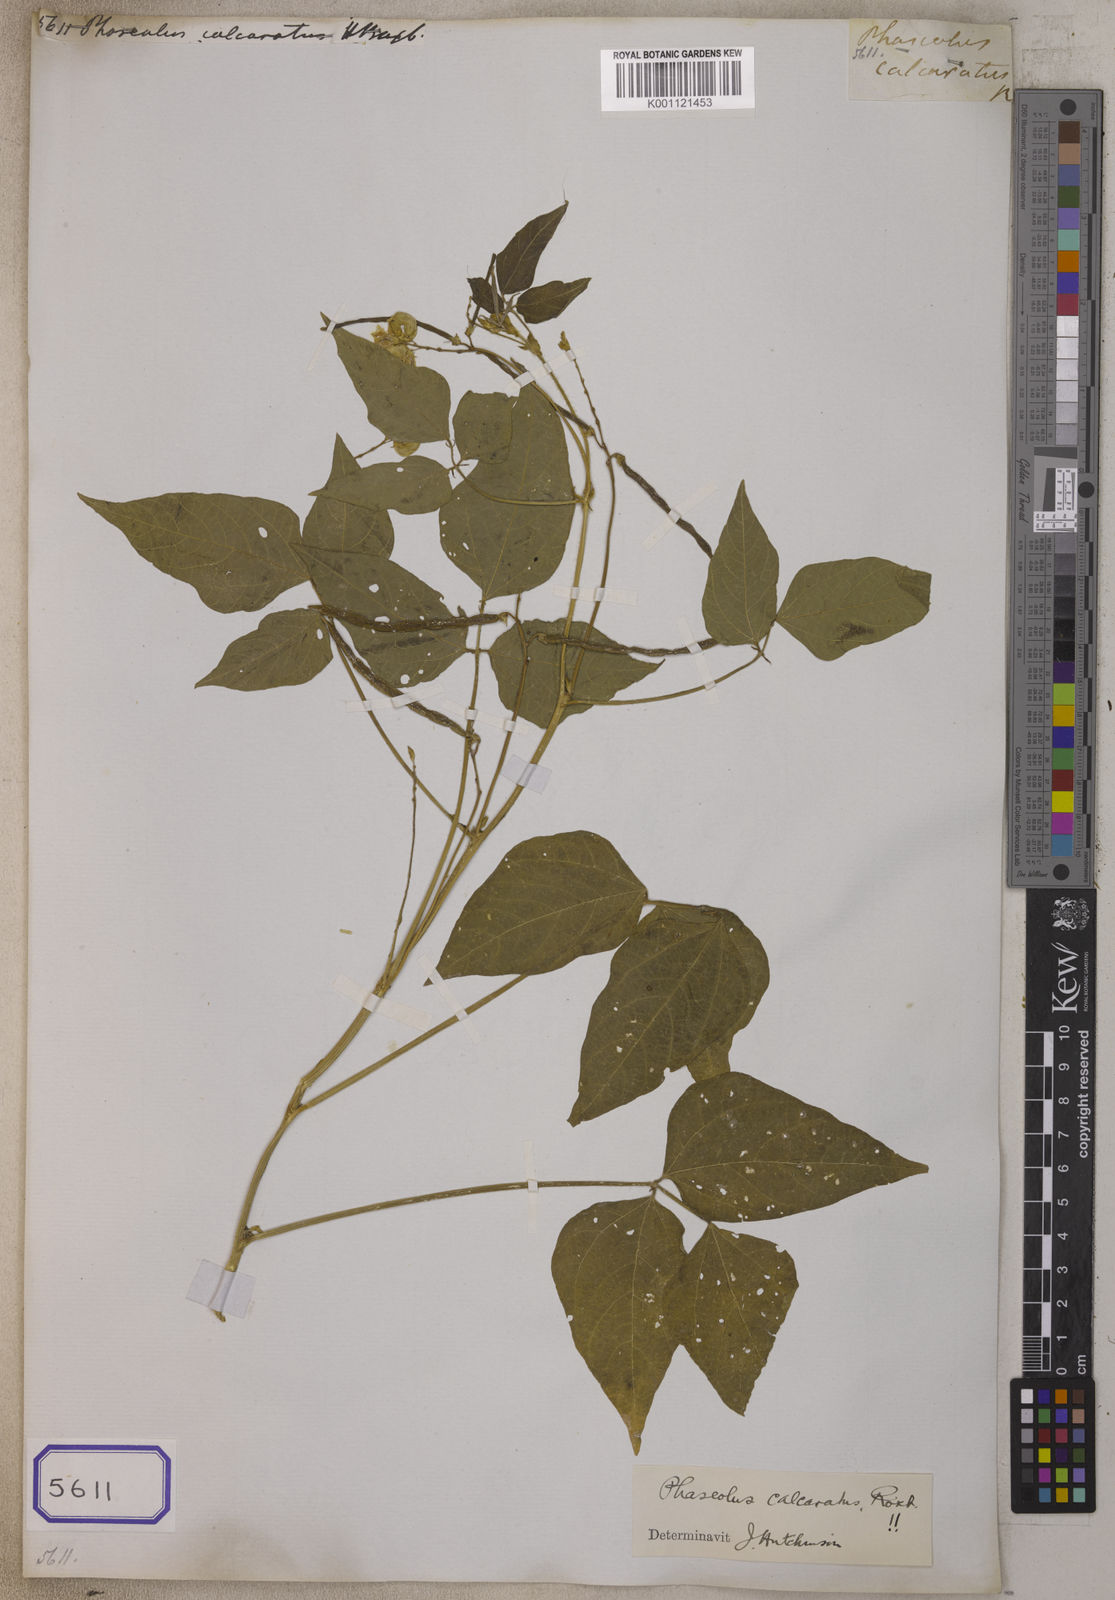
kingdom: Plantae
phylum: Tracheophyta
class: Magnoliopsida
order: Fabales
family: Fabaceae
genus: Vigna
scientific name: Vigna umbellata
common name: Oriental-bean
